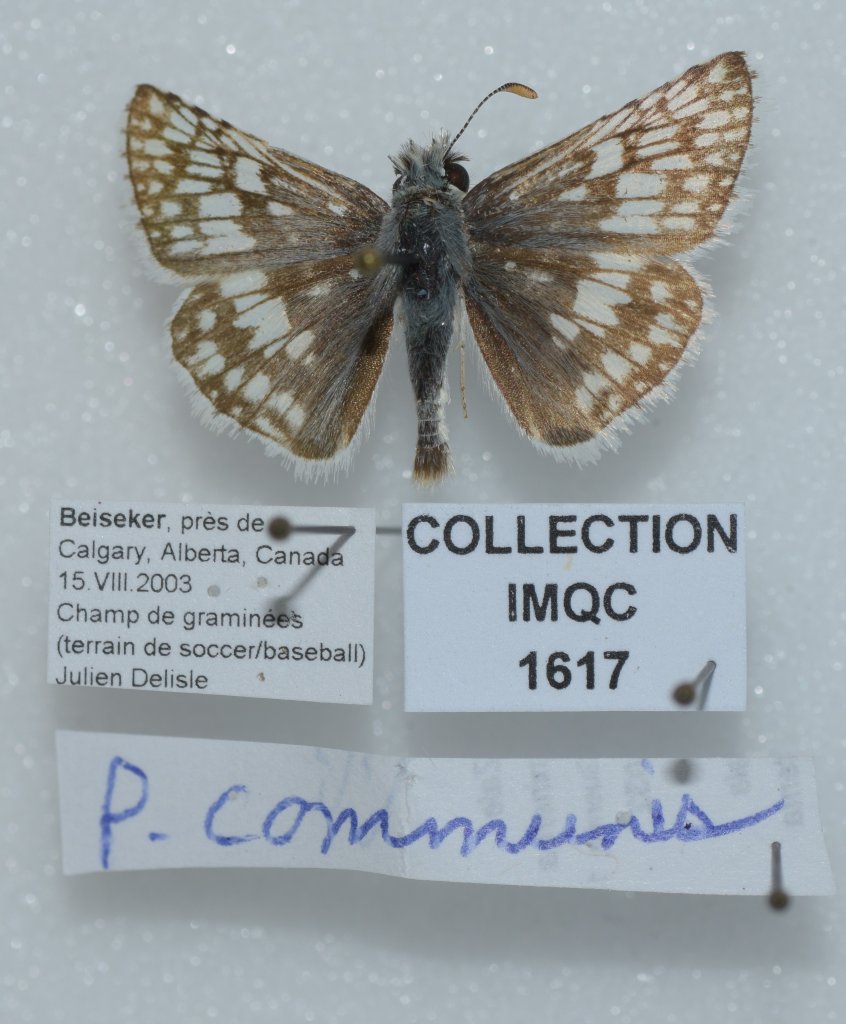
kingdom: Animalia
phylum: Arthropoda
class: Insecta
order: Lepidoptera
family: Hesperiidae
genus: Pyrgus
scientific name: Pyrgus communis
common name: Common Checkered-Skipper
